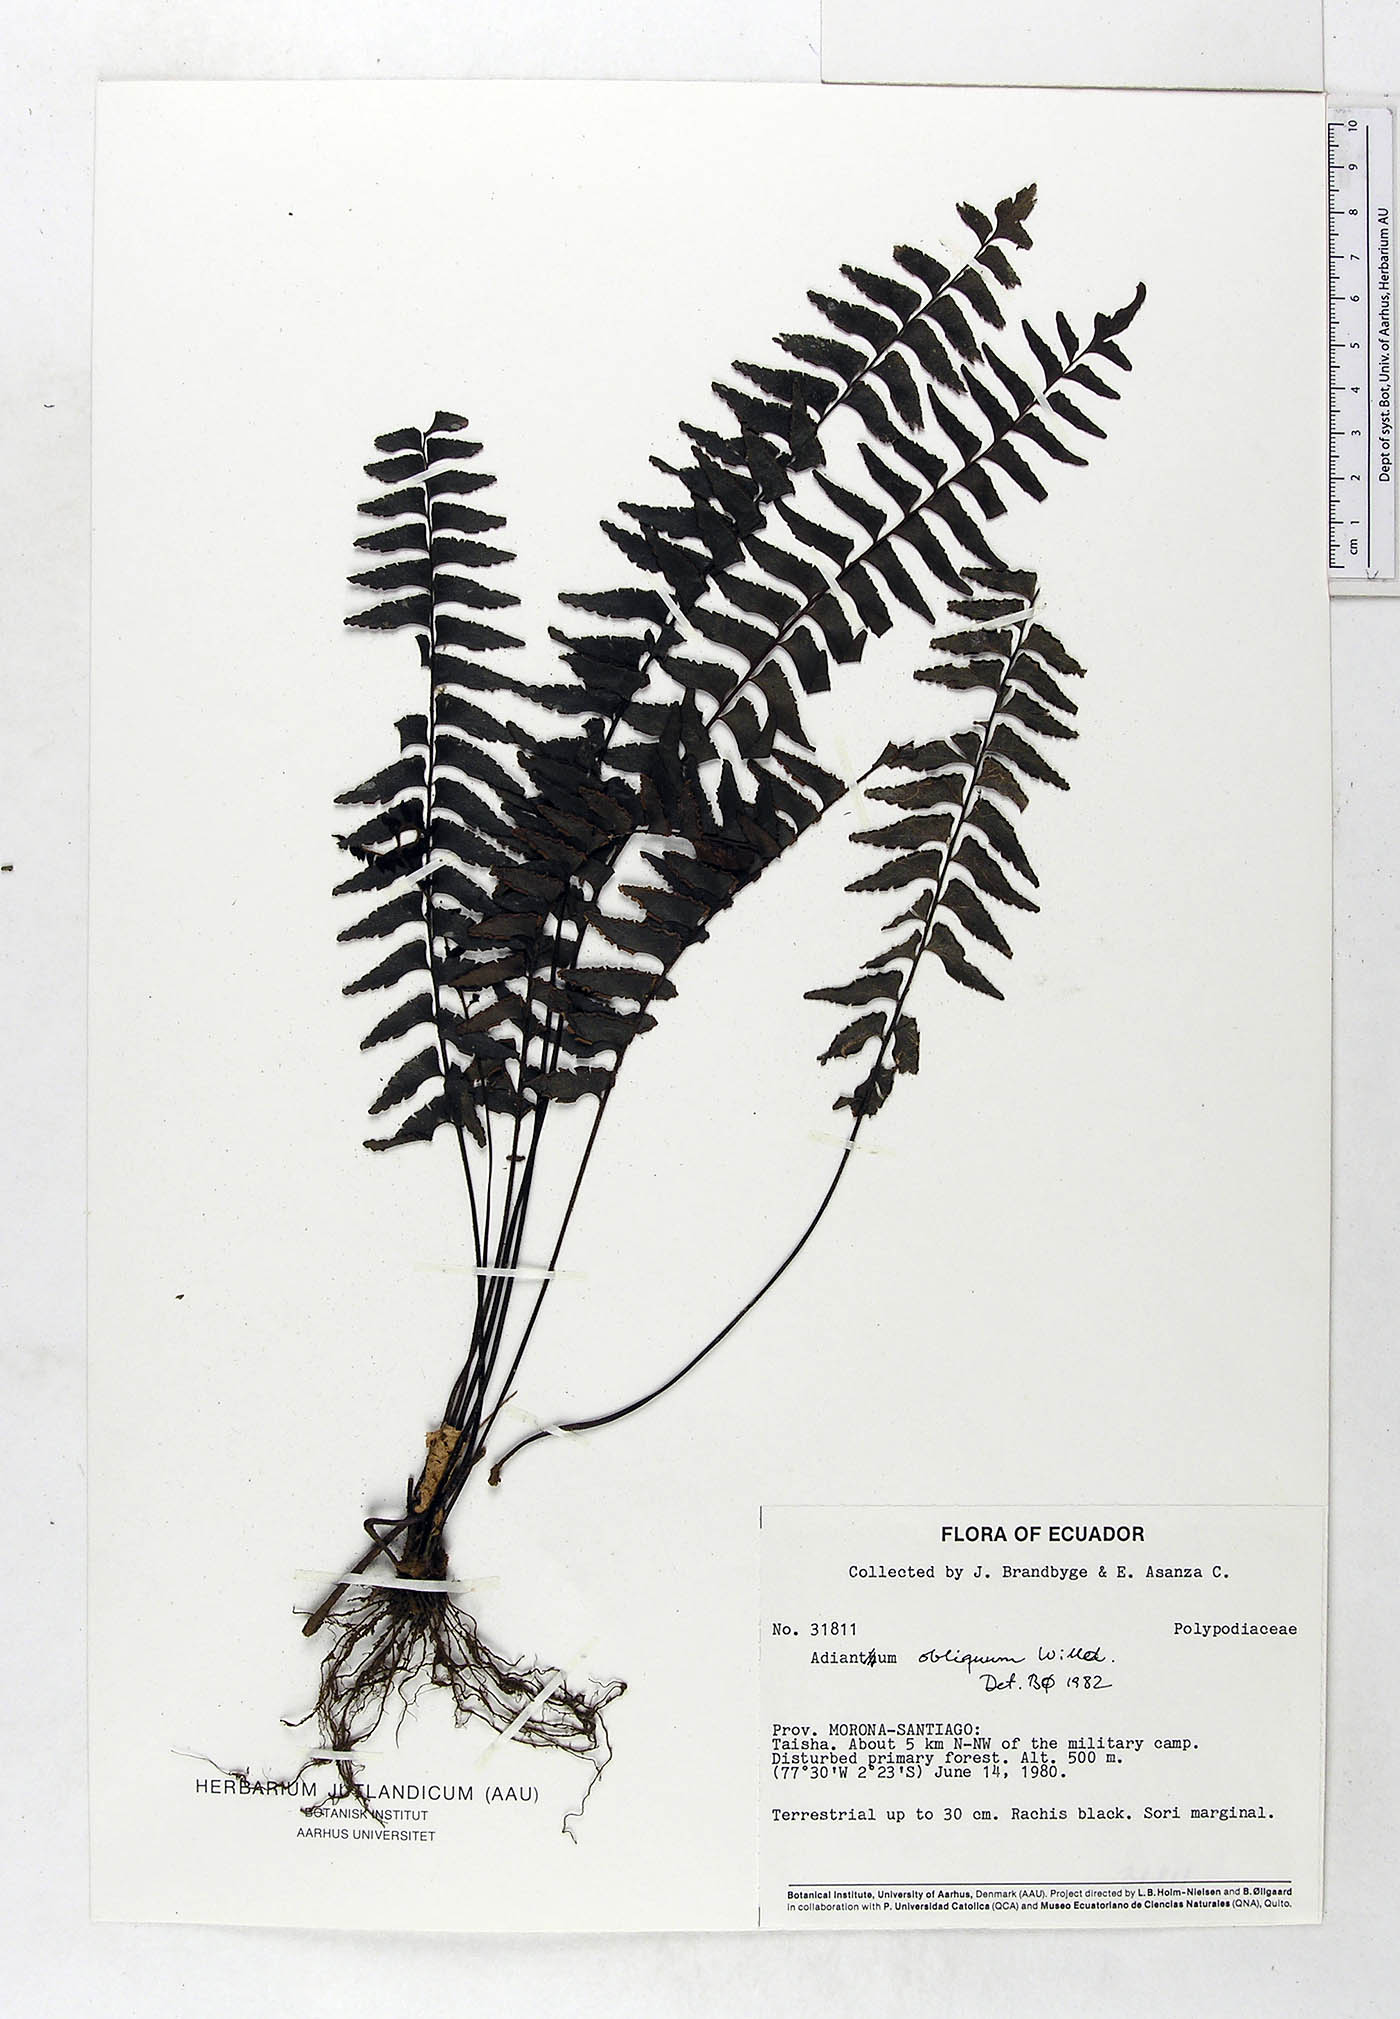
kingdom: Plantae
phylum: Tracheophyta
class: Polypodiopsida
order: Polypodiales
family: Pteridaceae
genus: Adiantum
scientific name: Adiantum obliquum
